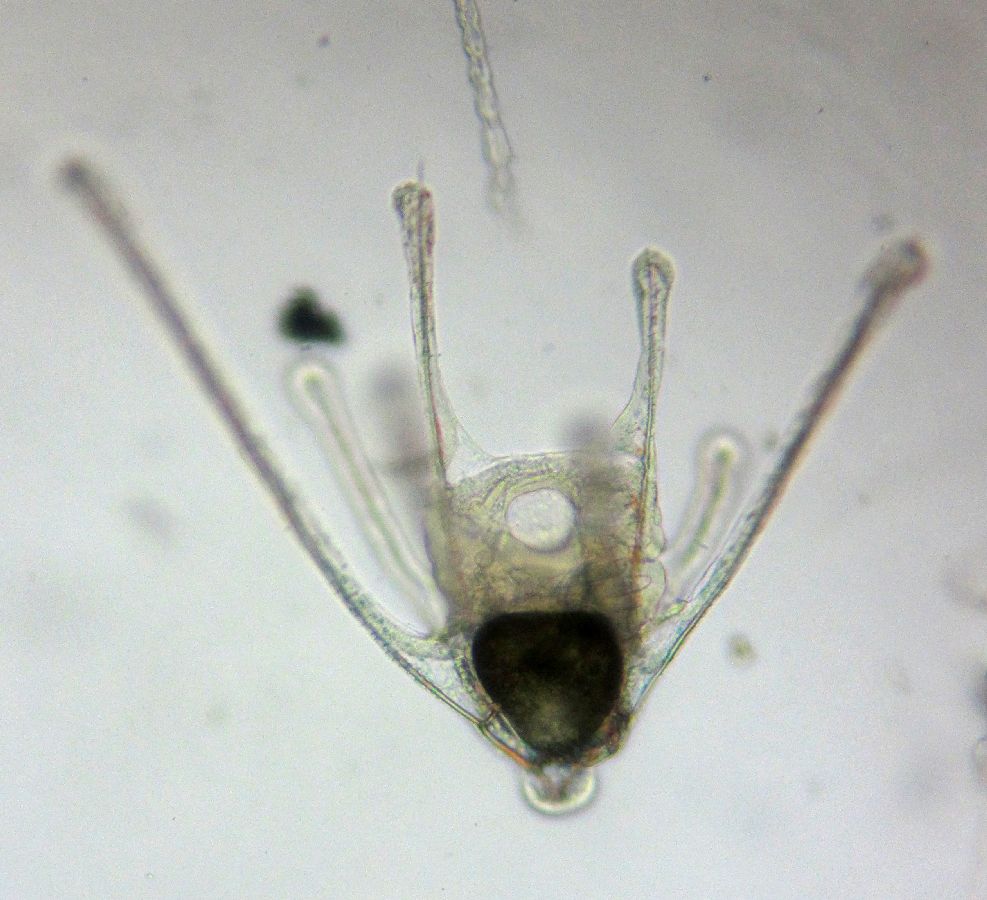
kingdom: Animalia
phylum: Echinodermata
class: Ophiuroidea
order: Amphilepidida
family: Ophiopholidae
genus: Ophiopholis
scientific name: Ophiopholis aculeata
